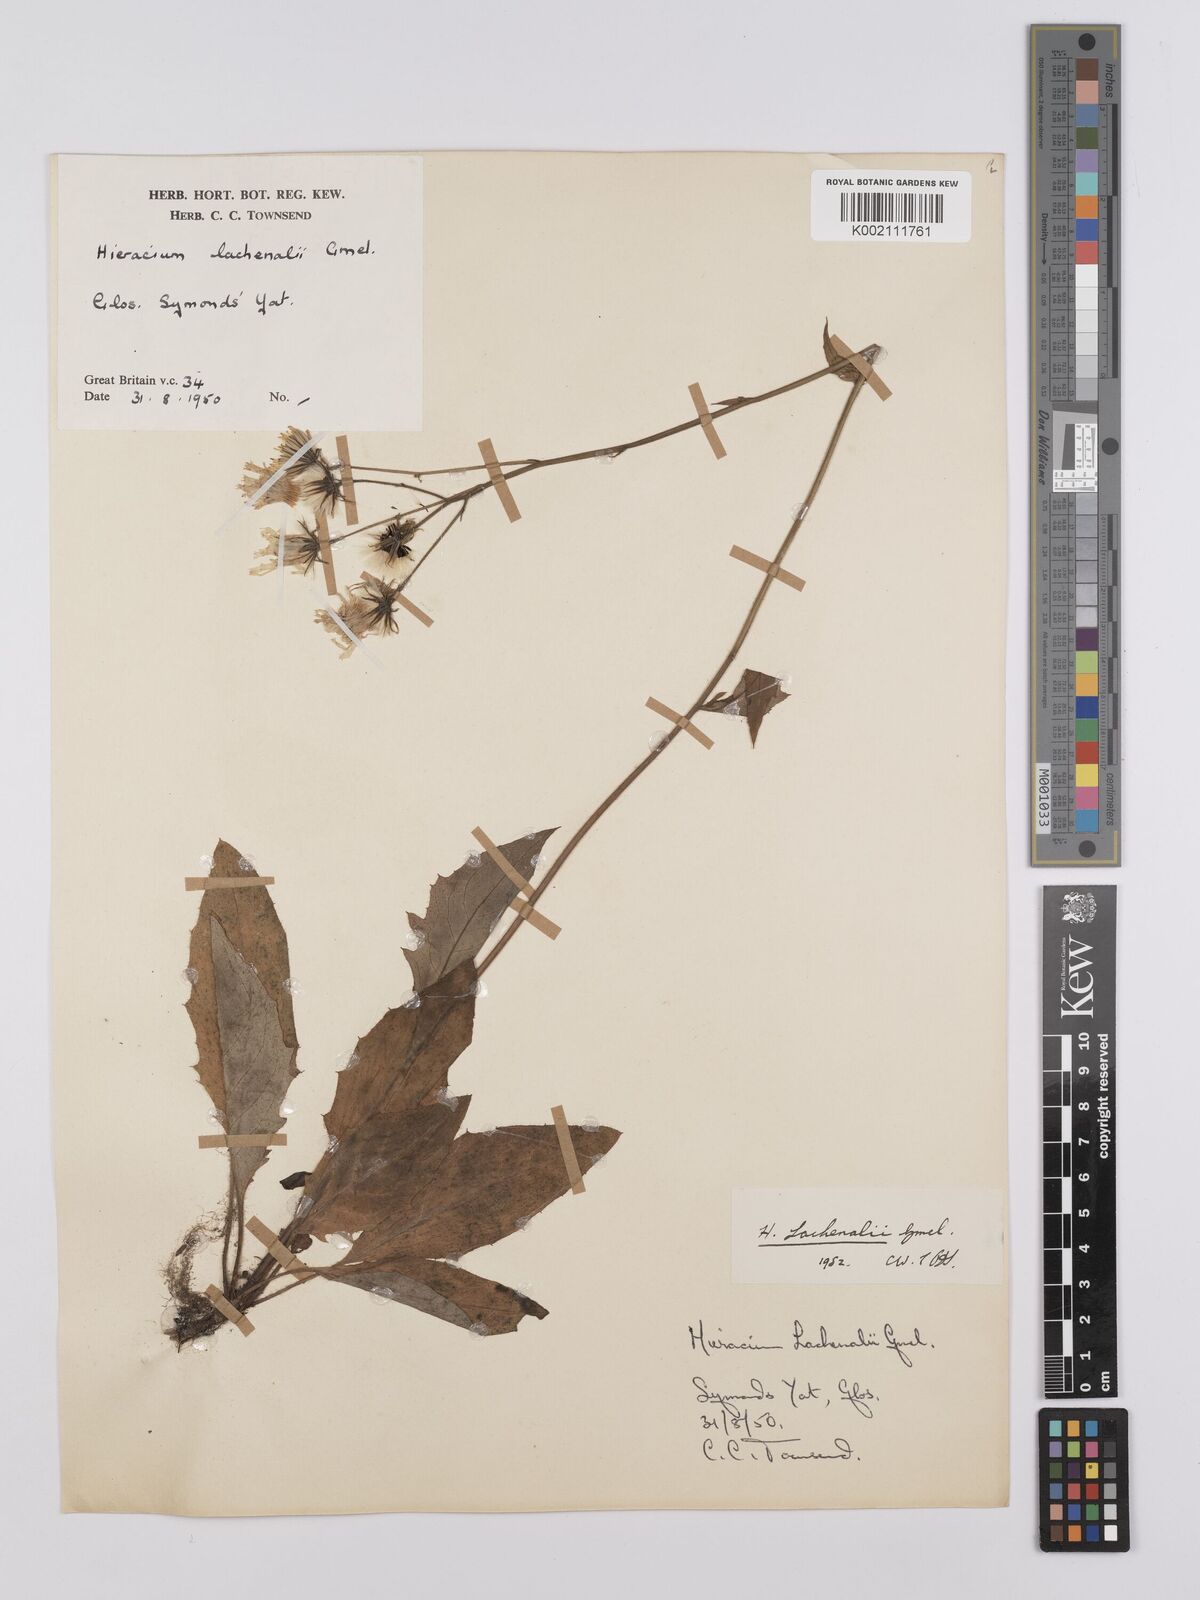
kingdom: Plantae
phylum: Tracheophyta
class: Magnoliopsida
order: Asterales
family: Asteraceae
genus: Hieracium
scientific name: Hieracium lachenalii
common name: Common hawkweed
